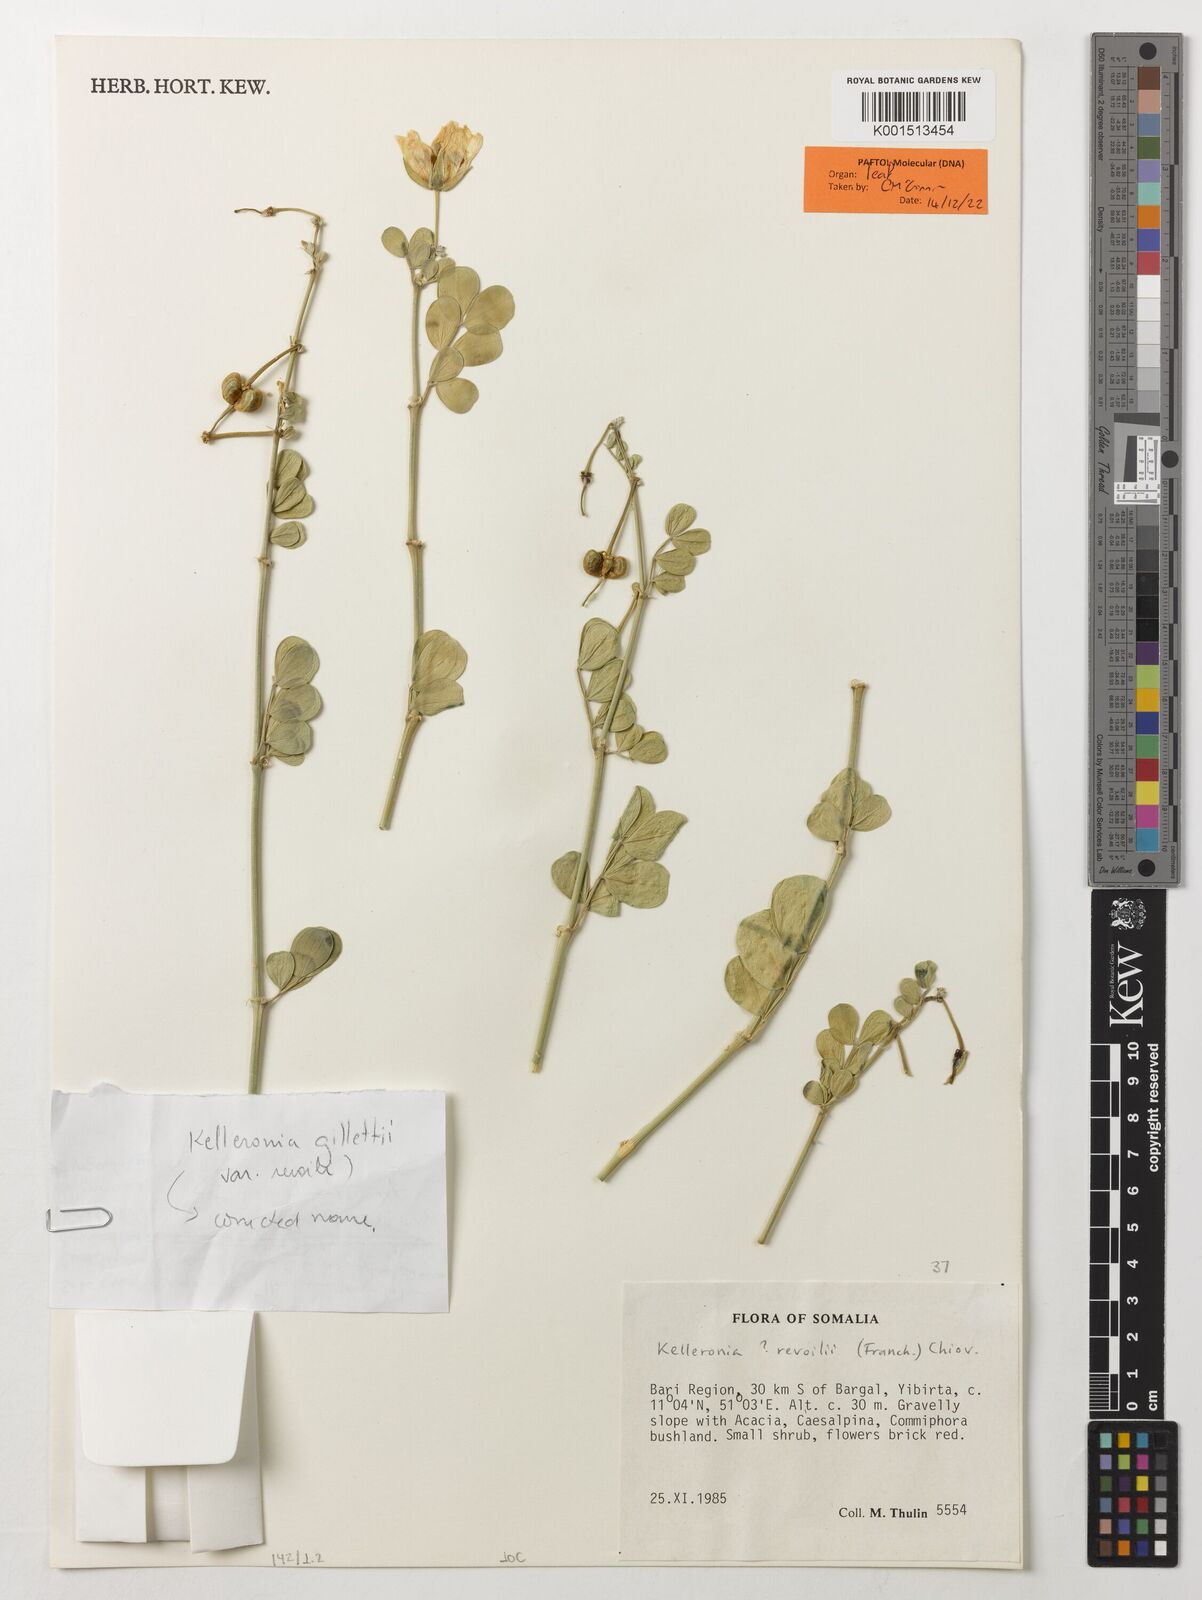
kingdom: Plantae
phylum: Tracheophyta
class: Magnoliopsida
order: Zygophyllales
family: Zygophyllaceae
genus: Kelleronia
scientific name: Kelleronia gillettiae
